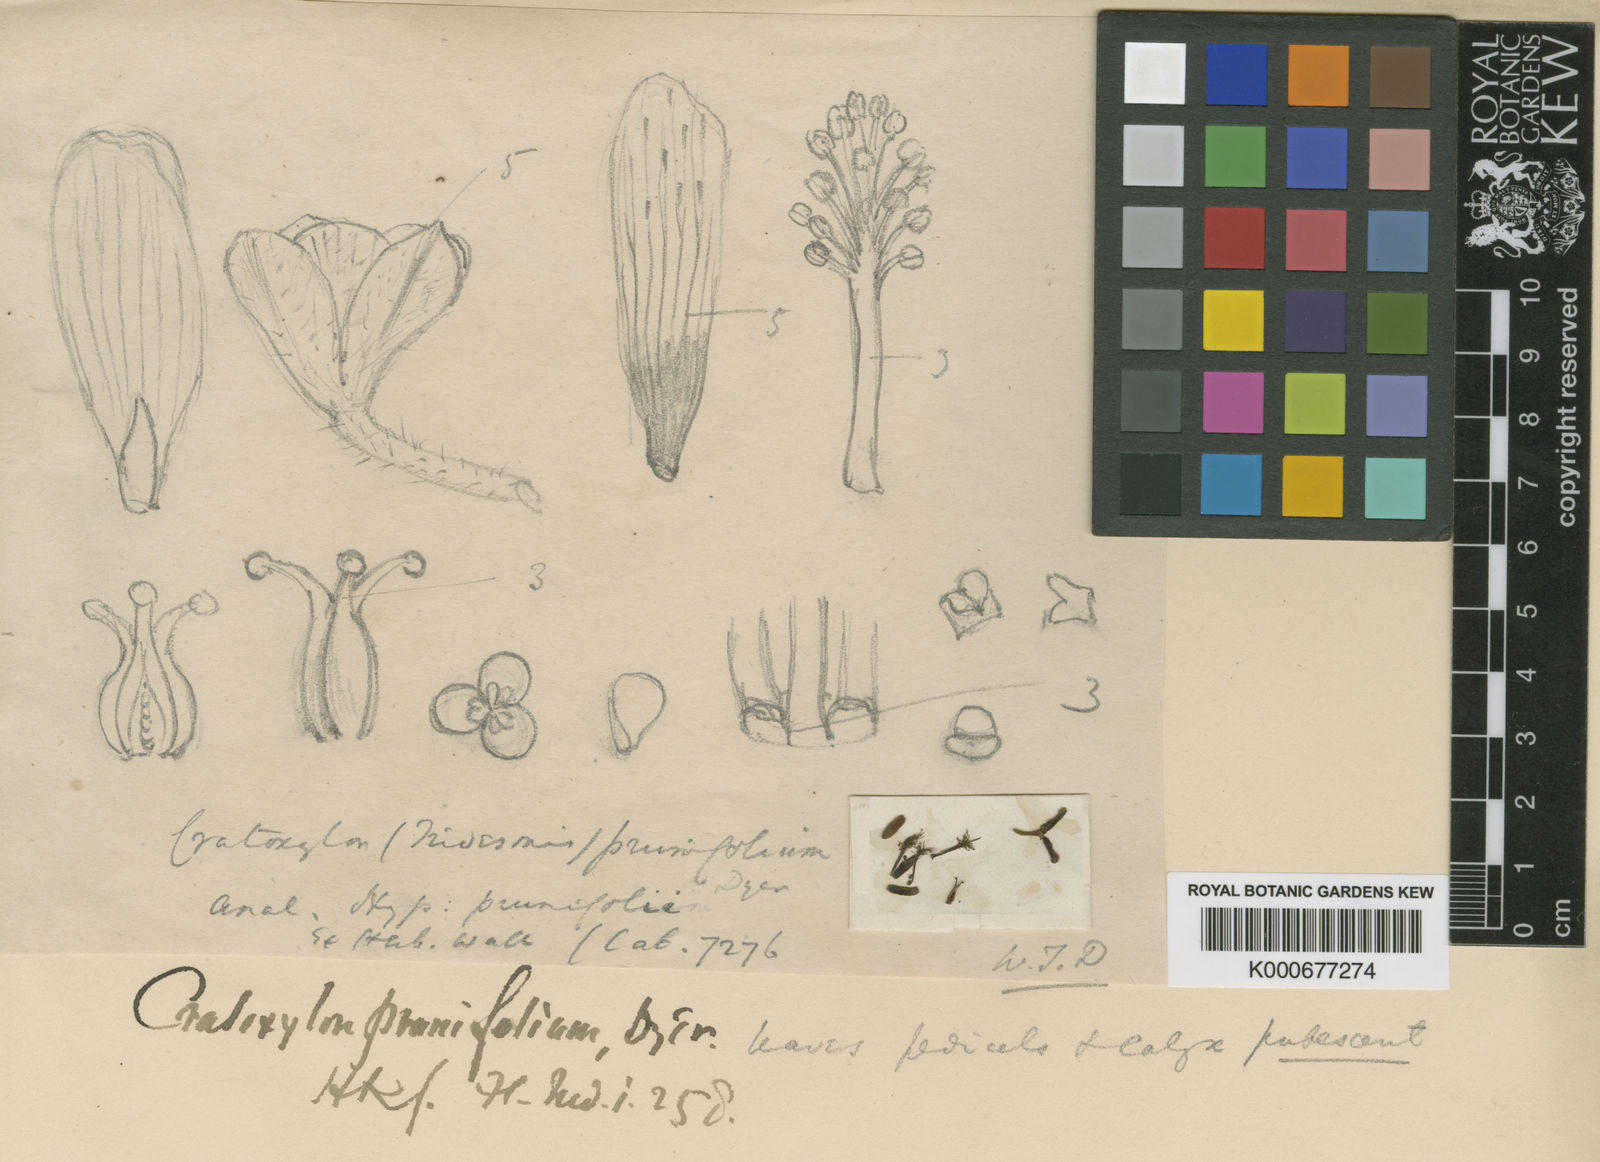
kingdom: Plantae
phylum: Tracheophyta
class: Magnoliopsida
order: Malpighiales
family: Hypericaceae
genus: Cratoxylum
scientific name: Cratoxylum formosum
